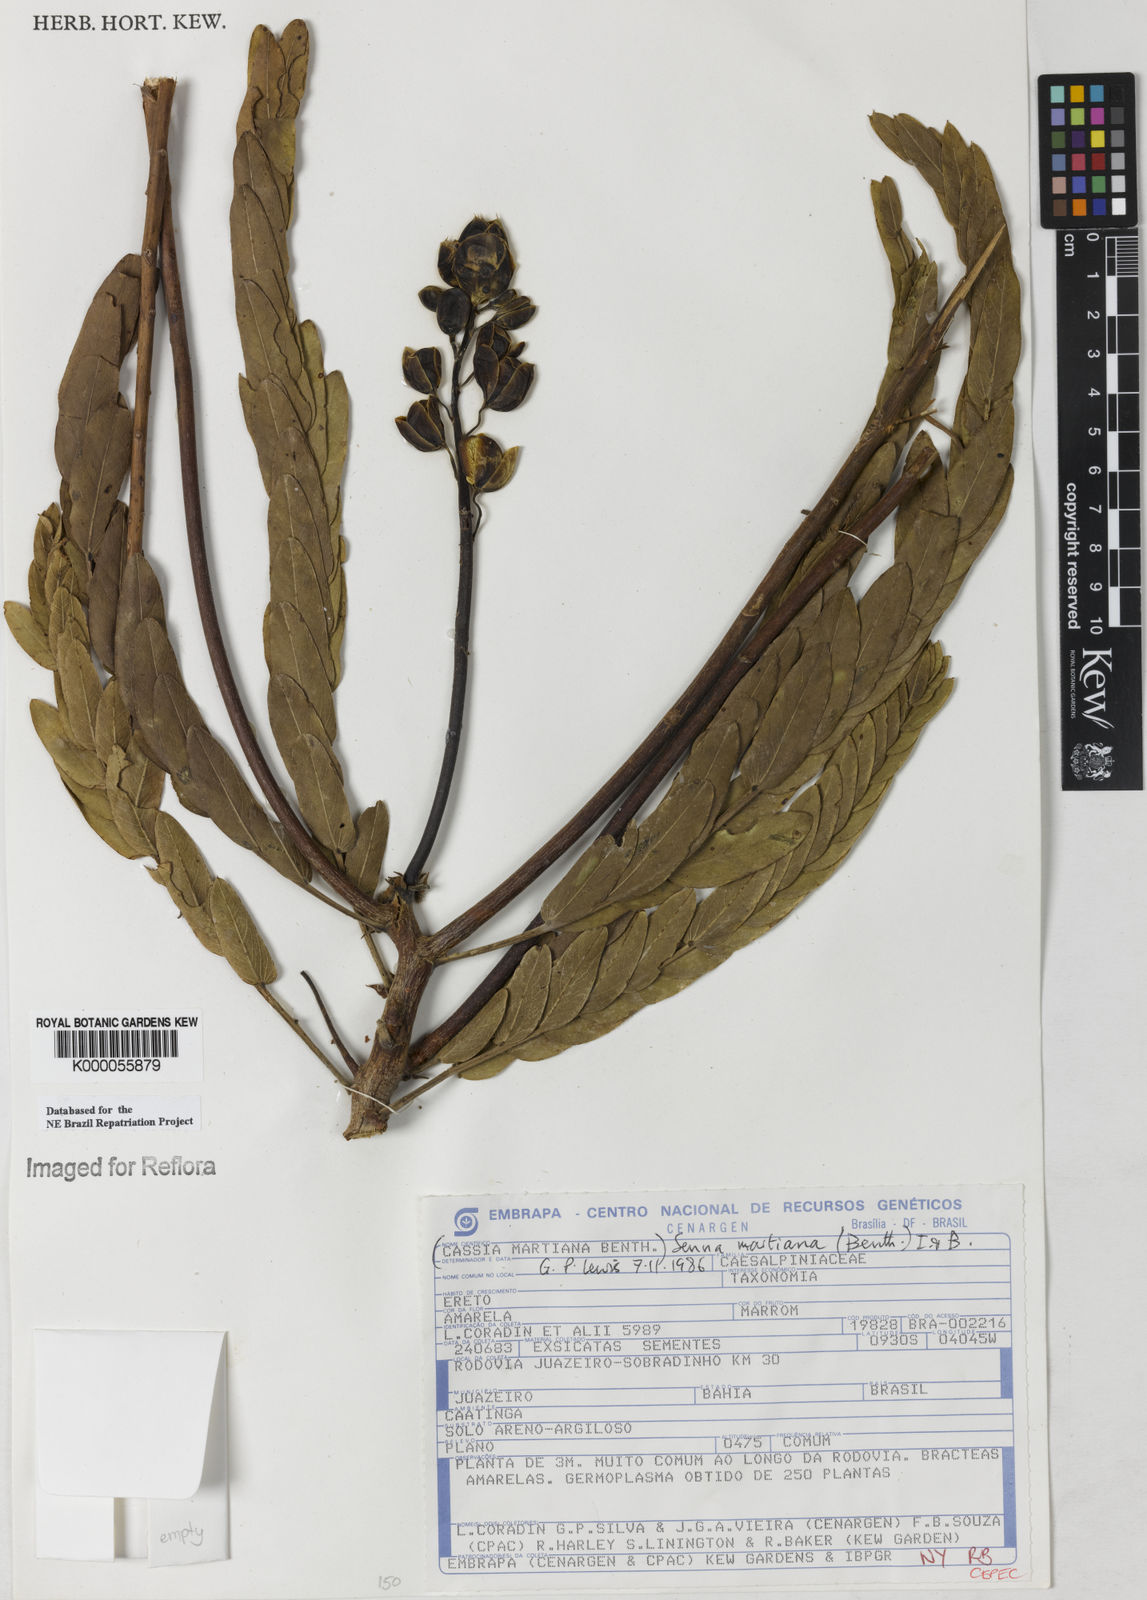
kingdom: Plantae
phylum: Tracheophyta
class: Magnoliopsida
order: Fabales
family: Fabaceae
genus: Senna
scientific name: Senna martiana
